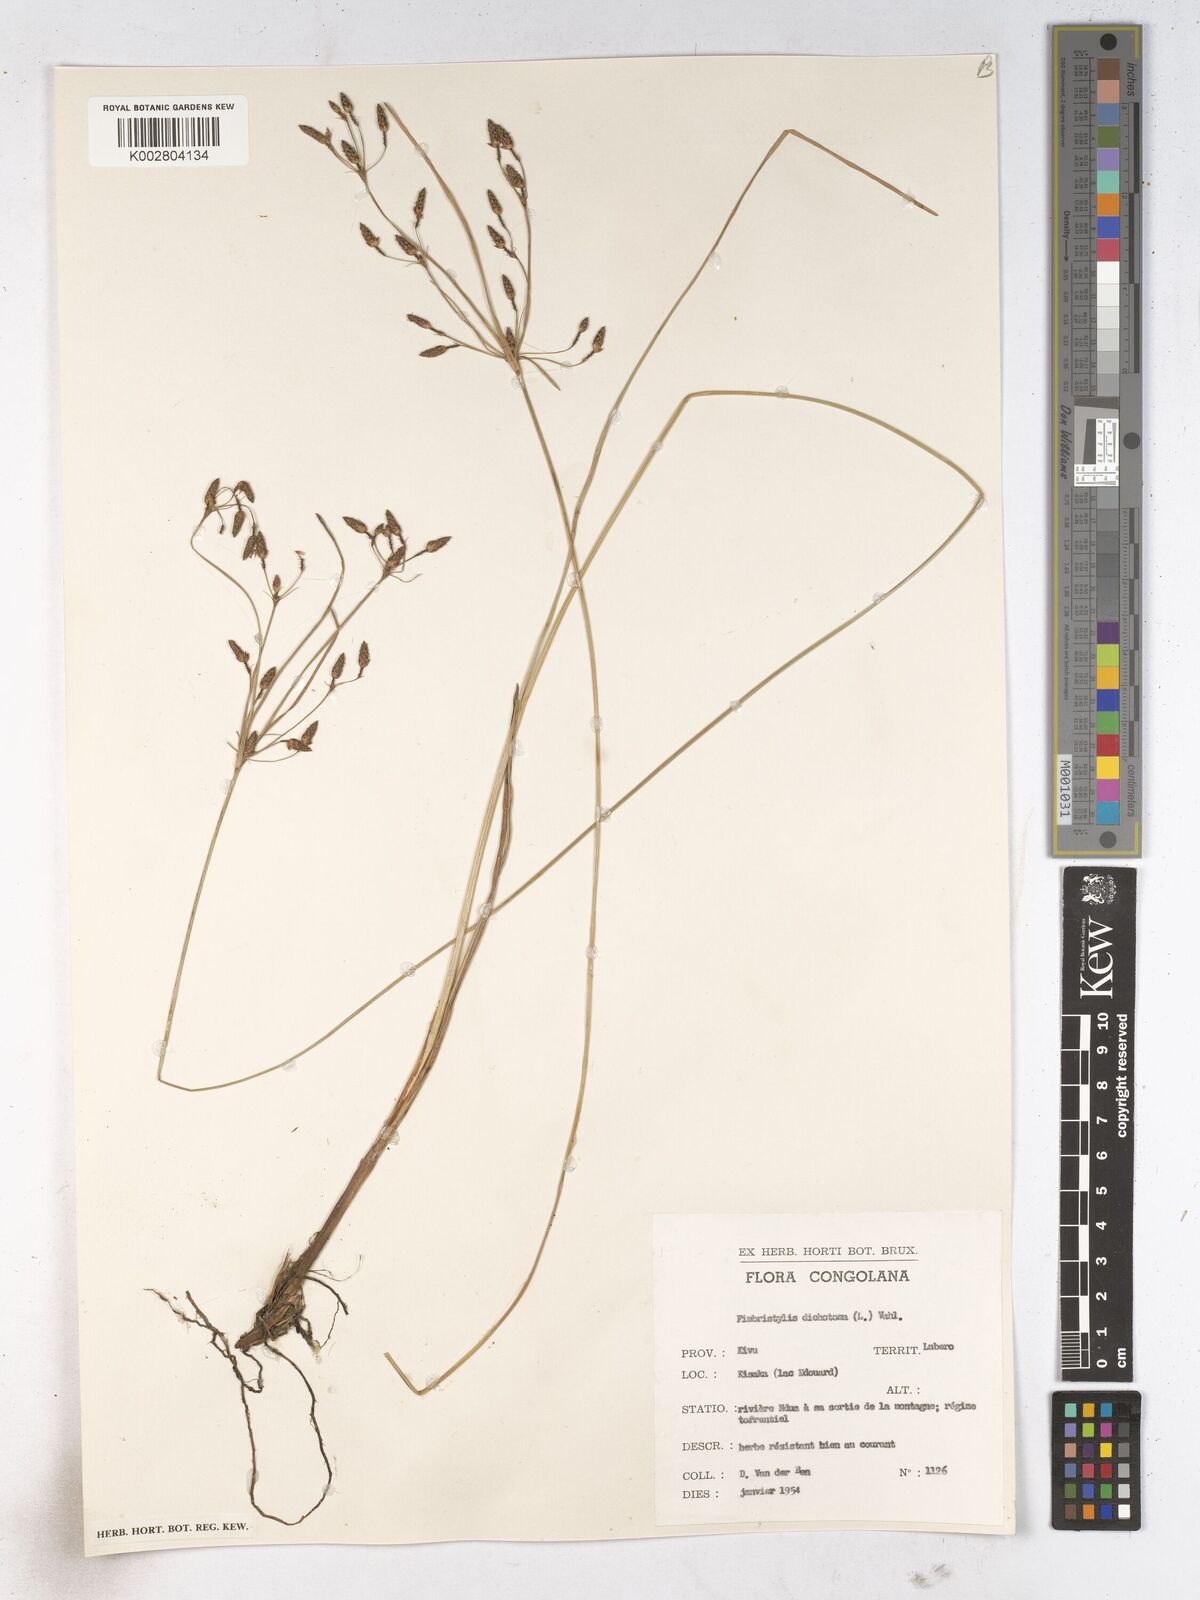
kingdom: Plantae
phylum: Tracheophyta
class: Liliopsida
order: Poales
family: Cyperaceae
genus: Fimbristylis
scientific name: Fimbristylis dichotoma
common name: Forked fimbry
